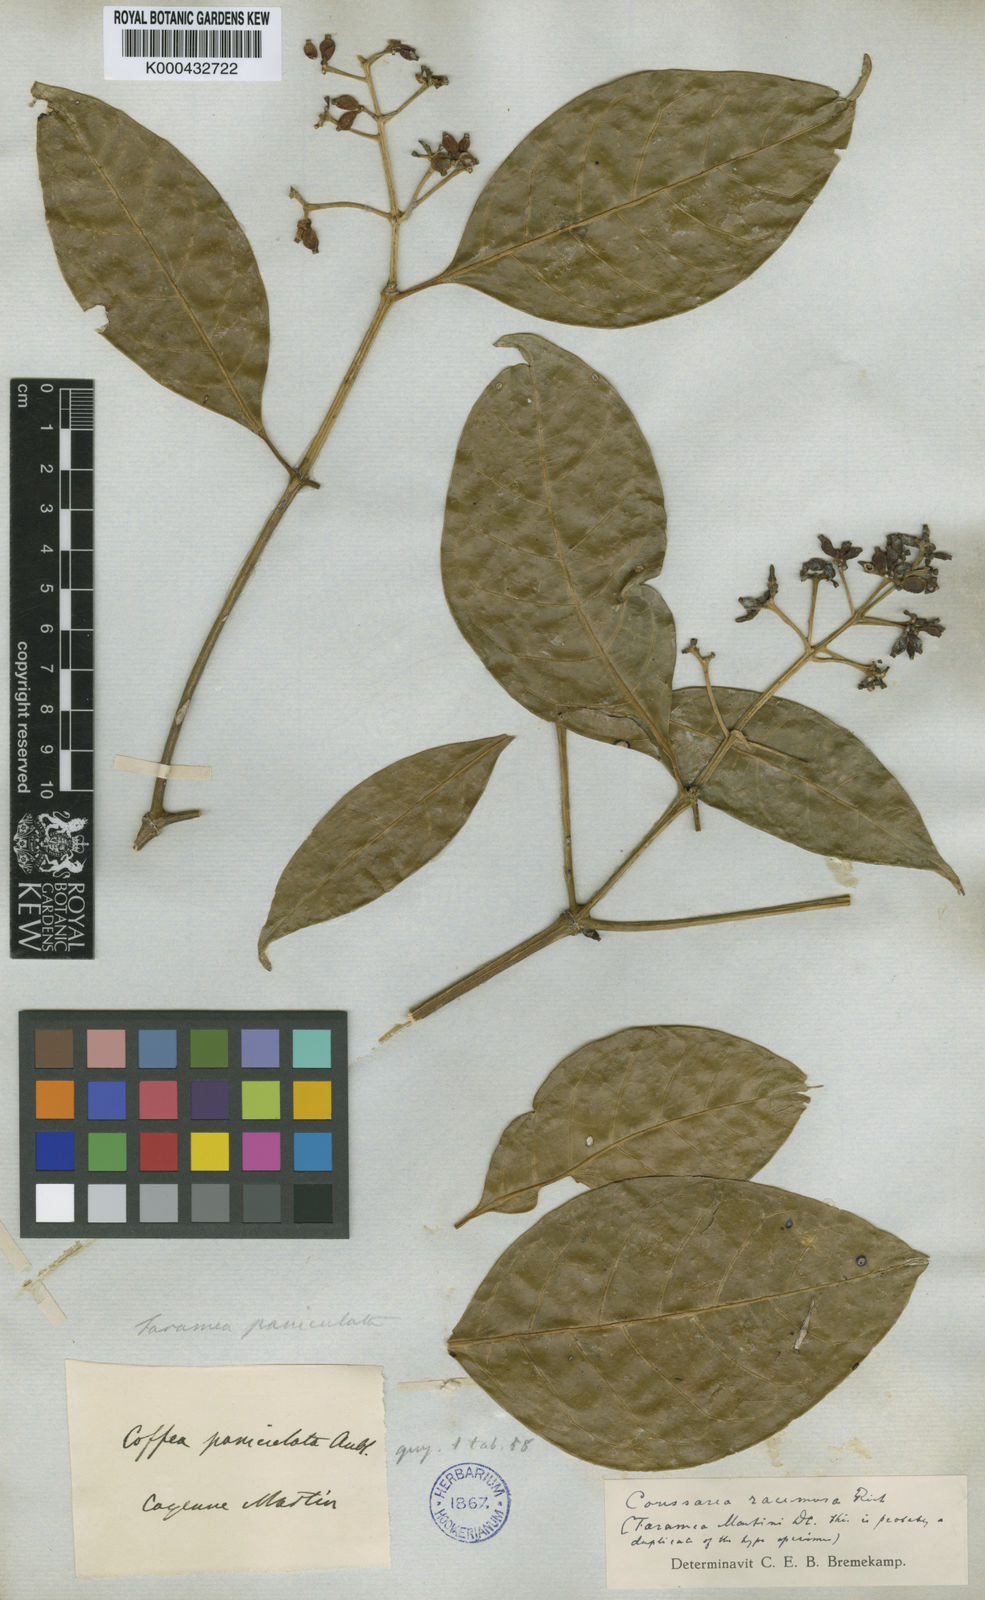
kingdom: Plantae
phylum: Tracheophyta
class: Magnoliopsida
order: Gentianales
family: Rubiaceae
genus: Coussarea
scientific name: Coussarea
